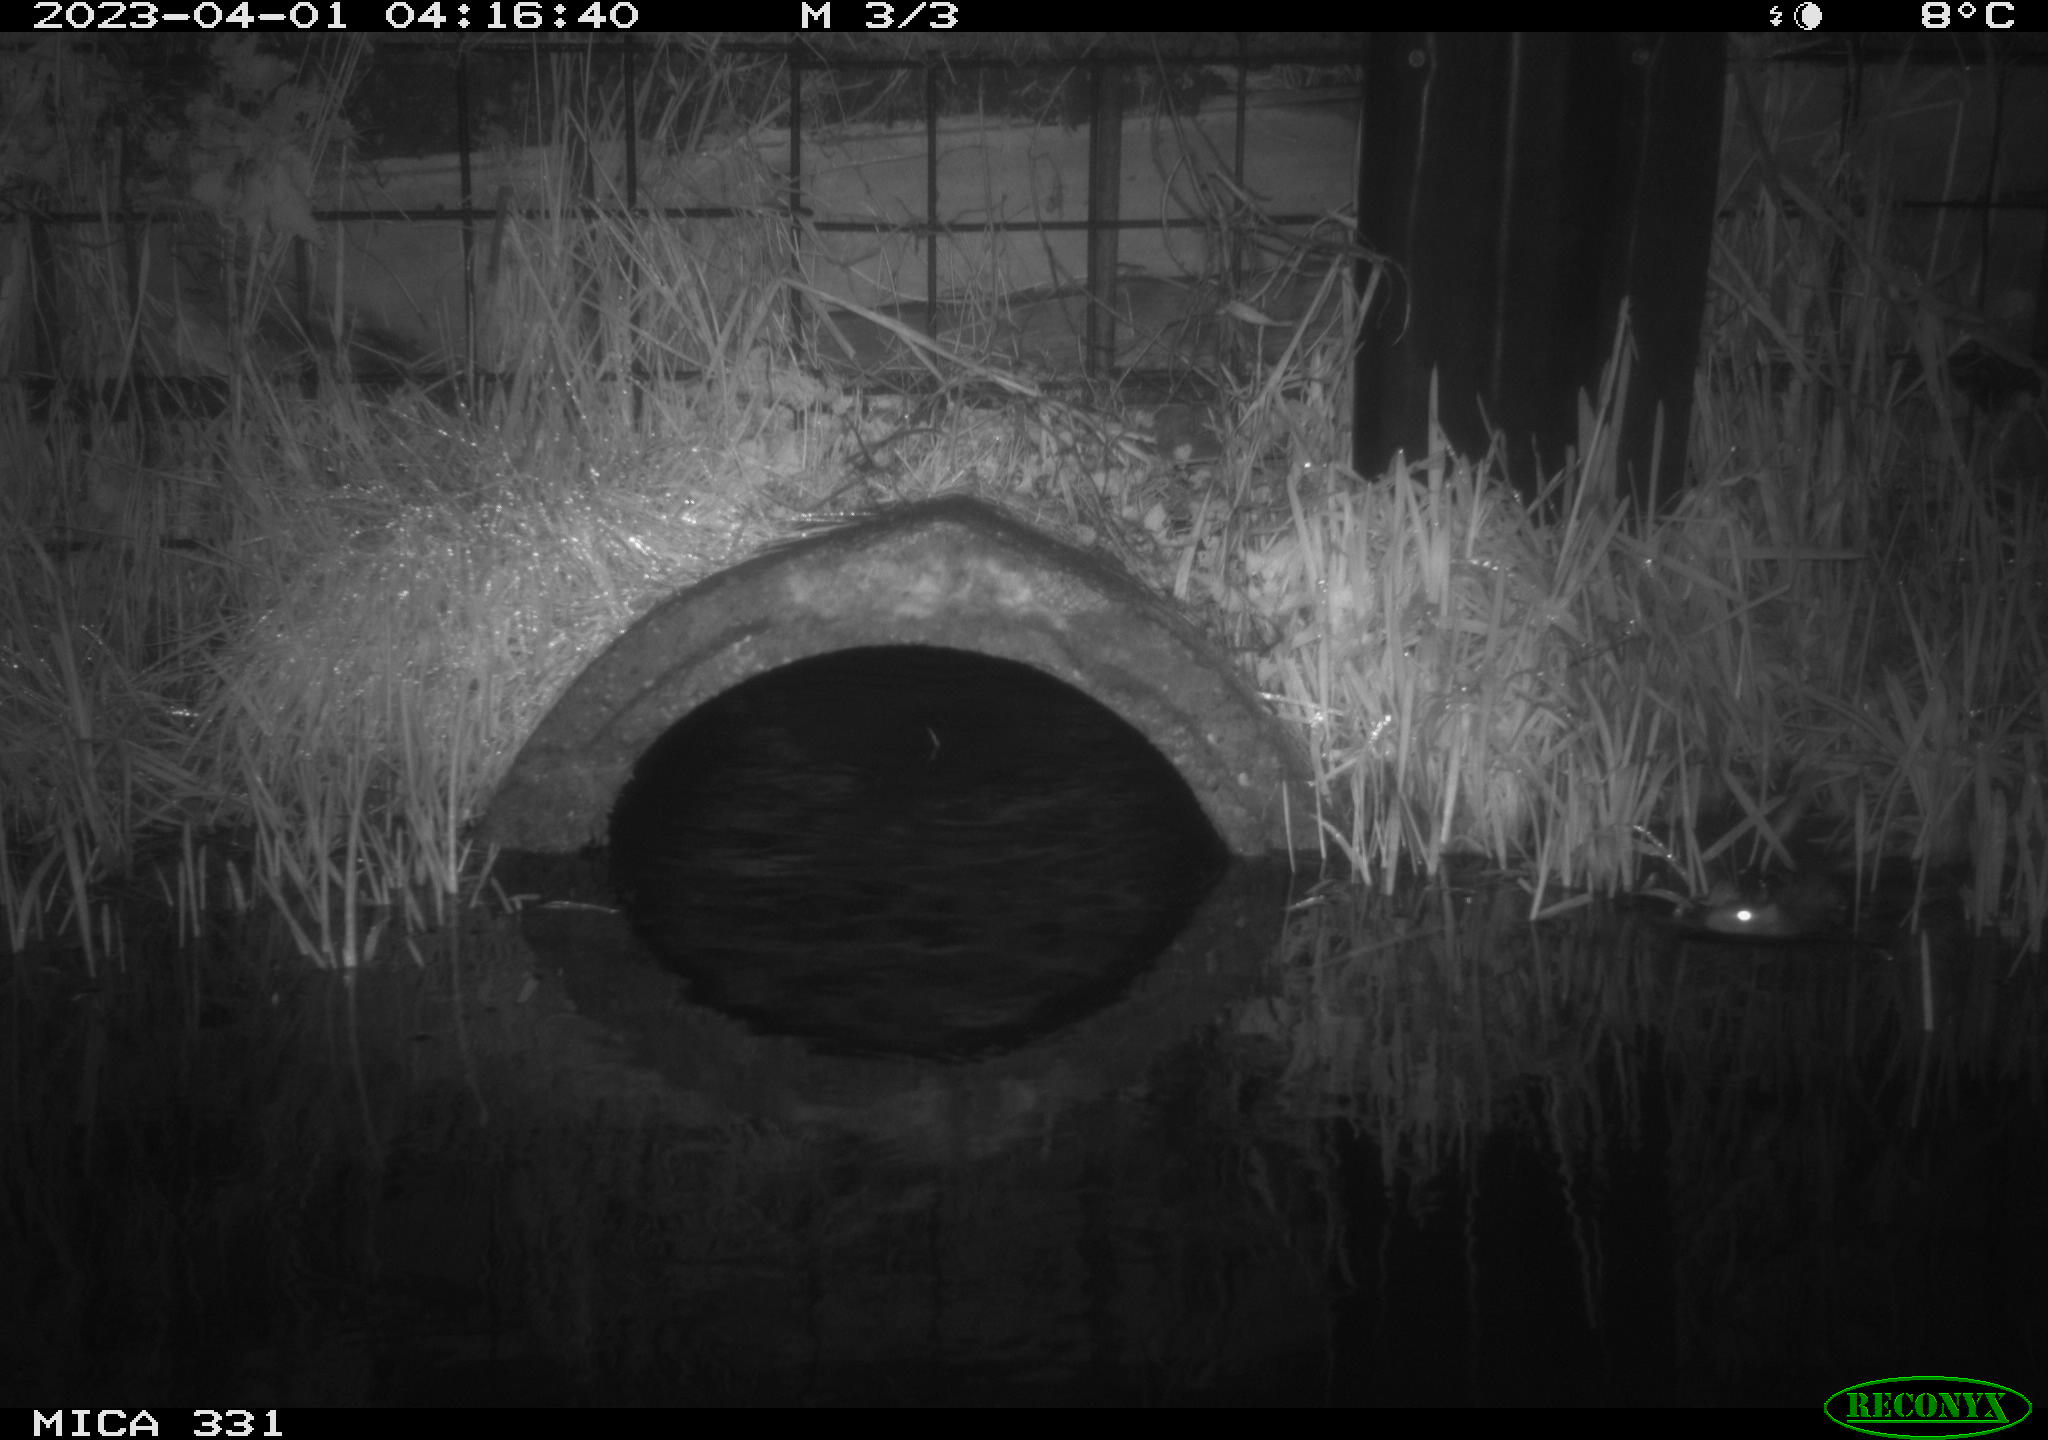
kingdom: Animalia
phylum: Chordata
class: Mammalia
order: Rodentia
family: Muridae
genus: Rattus
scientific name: Rattus norvegicus
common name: Brown rat
